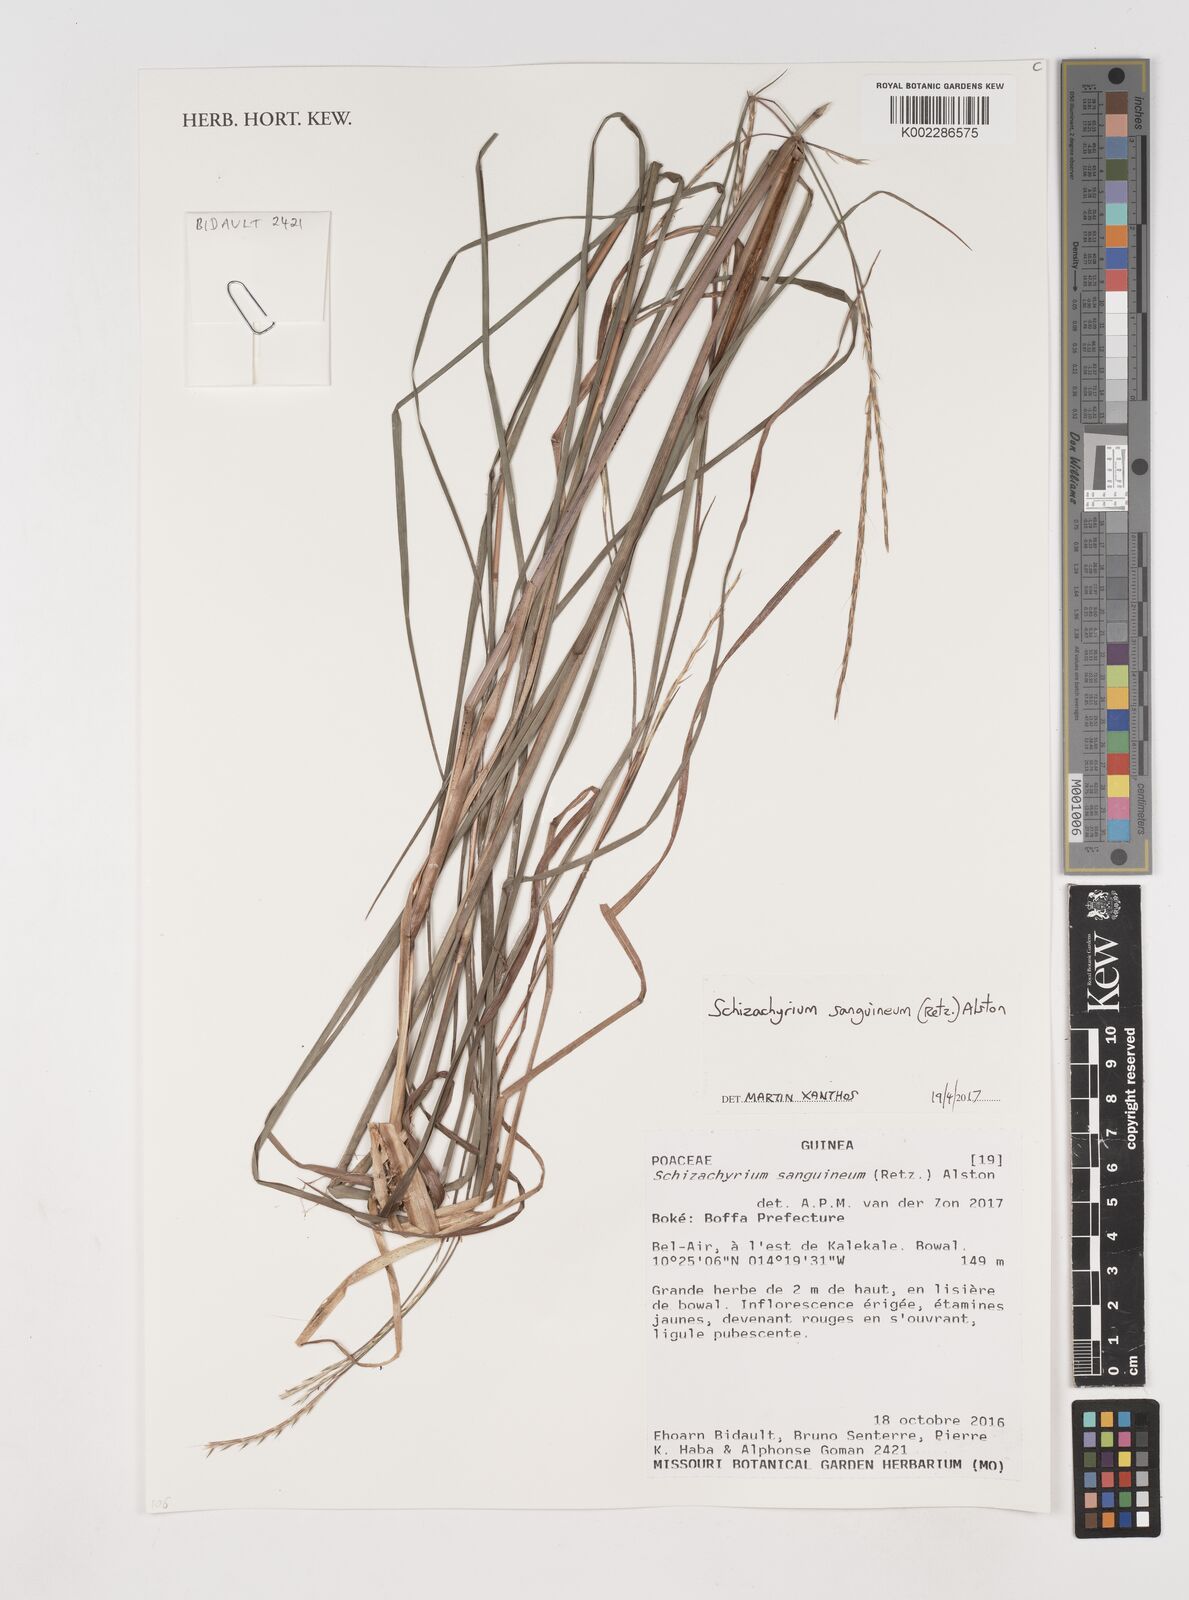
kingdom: Plantae
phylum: Tracheophyta
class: Liliopsida
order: Poales
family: Poaceae
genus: Schizachyrium
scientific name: Schizachyrium sanguineum
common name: Crimson bluestem
